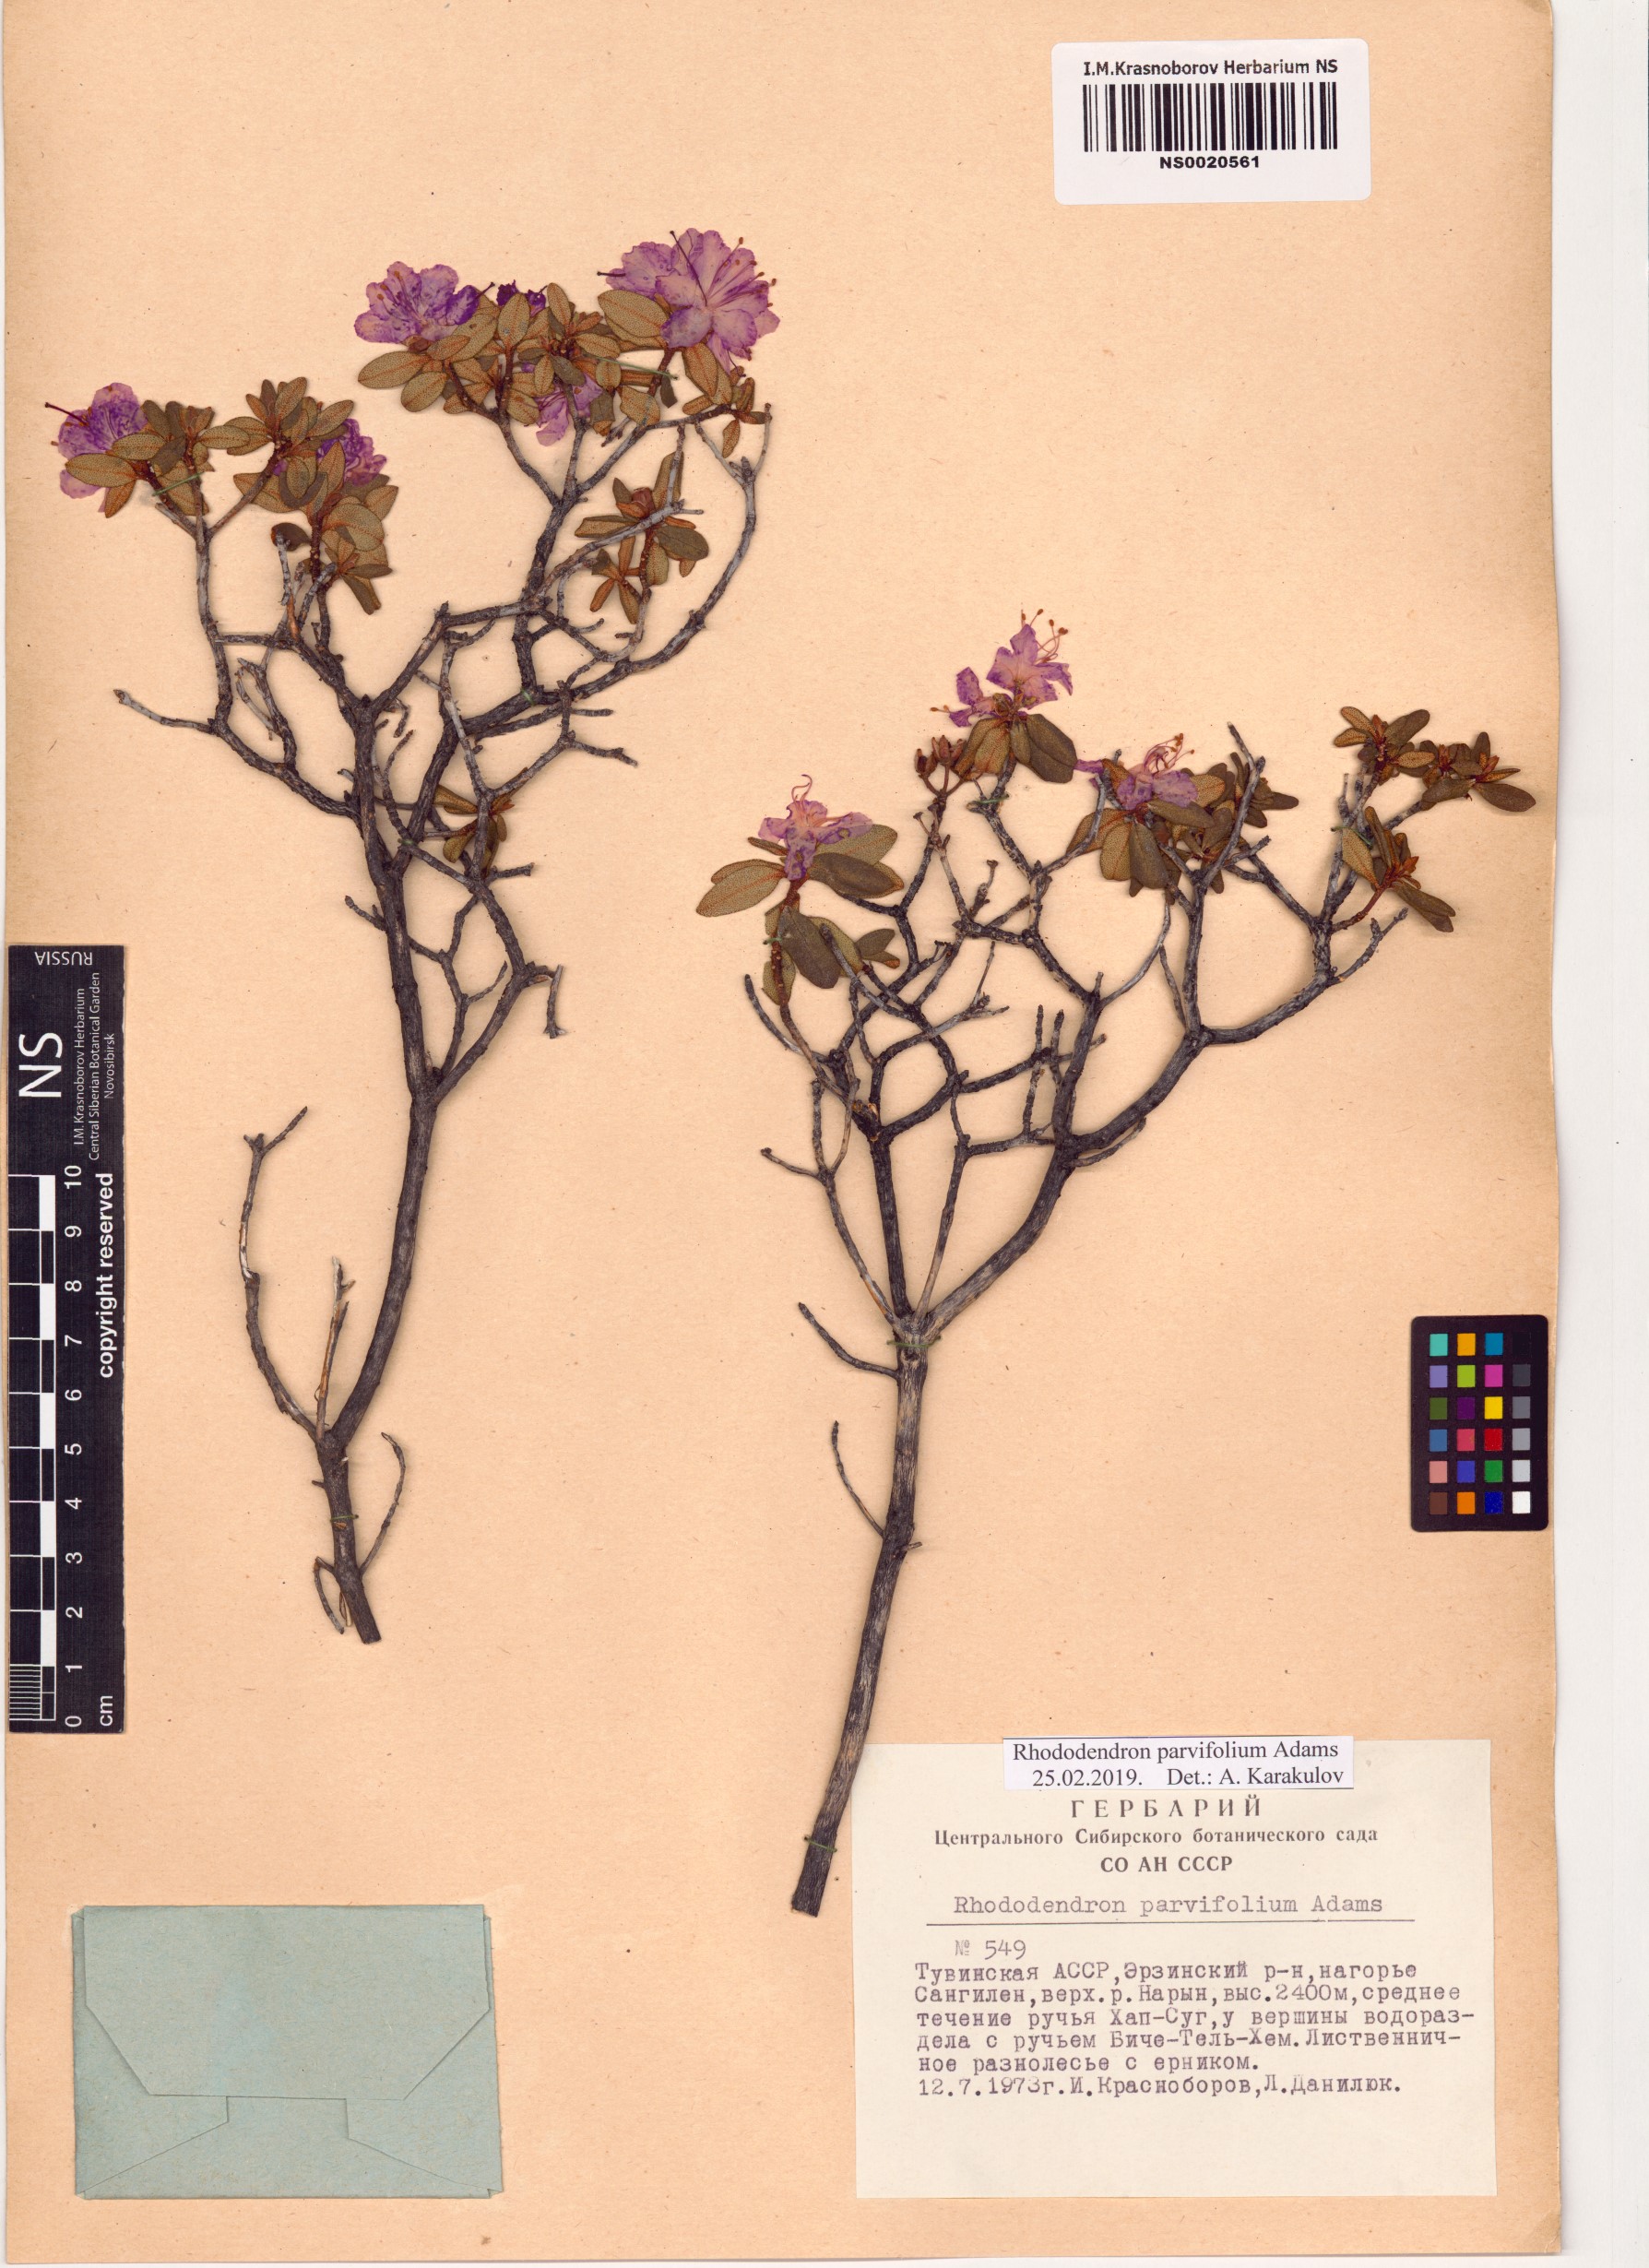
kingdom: Plantae
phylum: Tracheophyta
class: Magnoliopsida
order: Ericales
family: Ericaceae
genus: Rhododendron
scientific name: Rhododendron parvifolium
